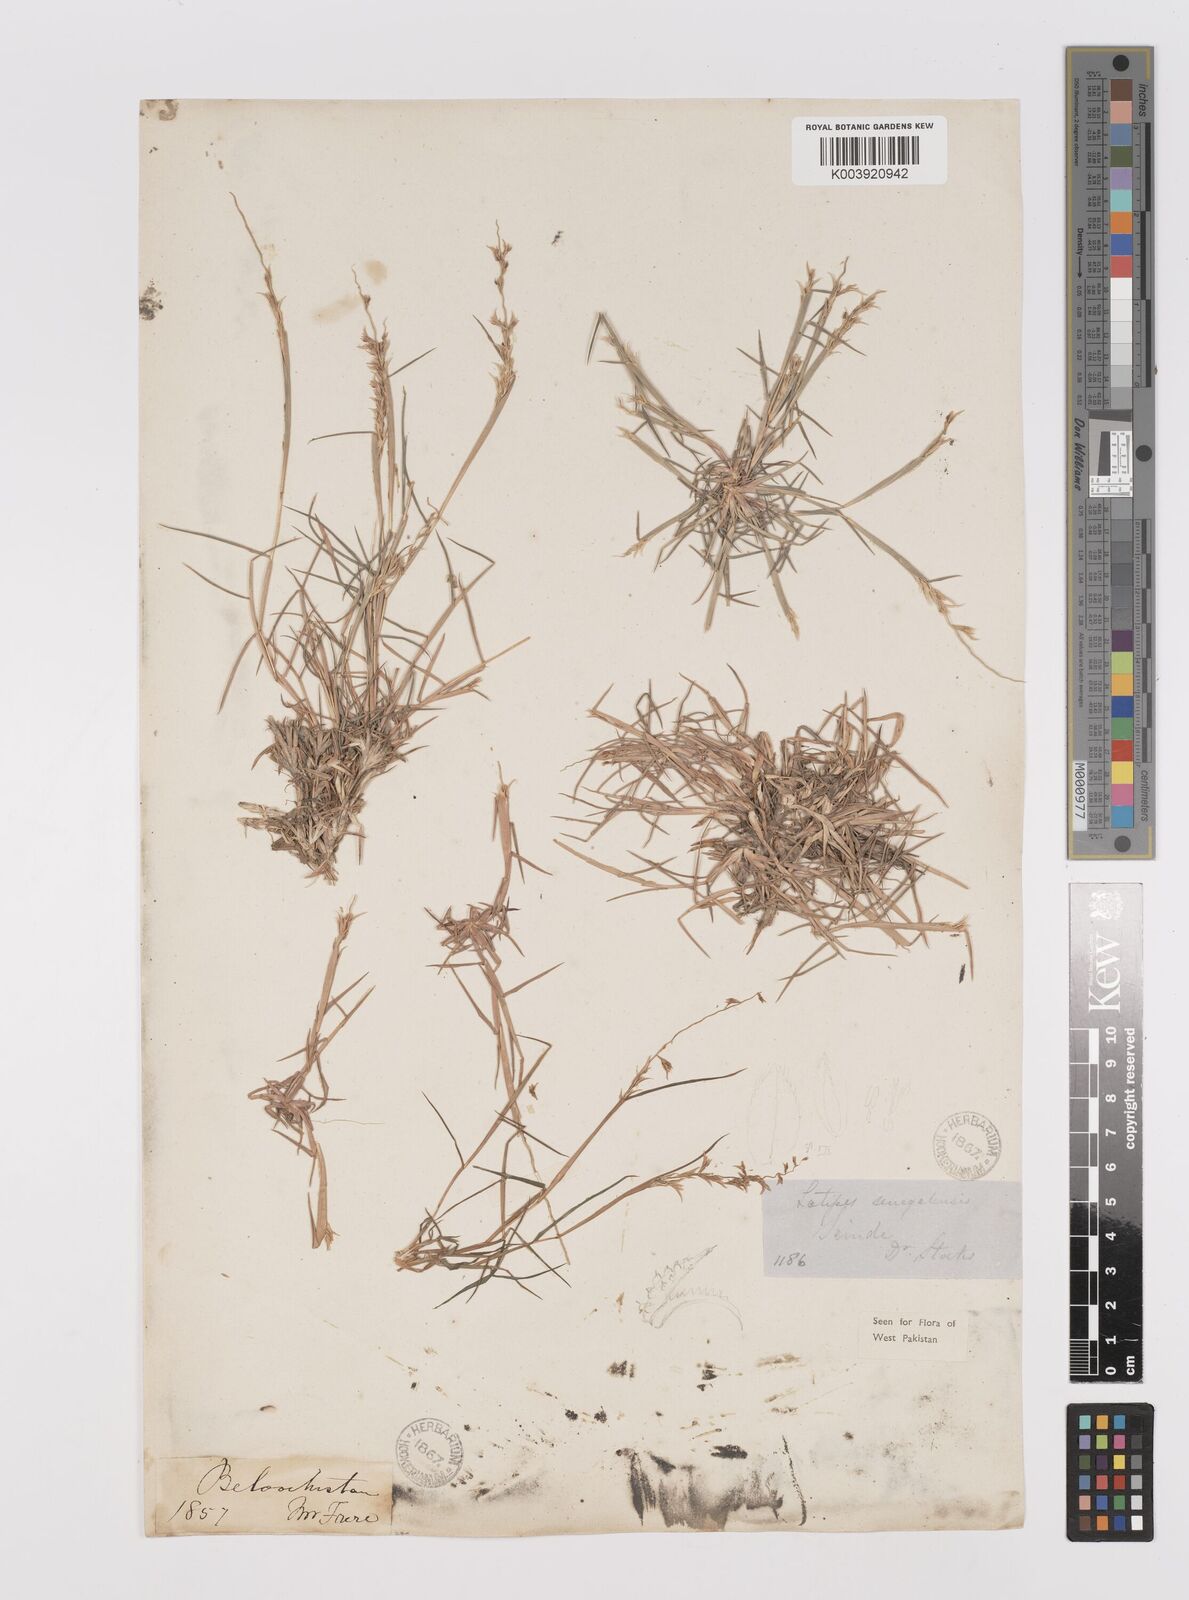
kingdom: Plantae
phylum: Tracheophyta
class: Liliopsida
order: Poales
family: Poaceae
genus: Leptothrium
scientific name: Leptothrium senegalense
